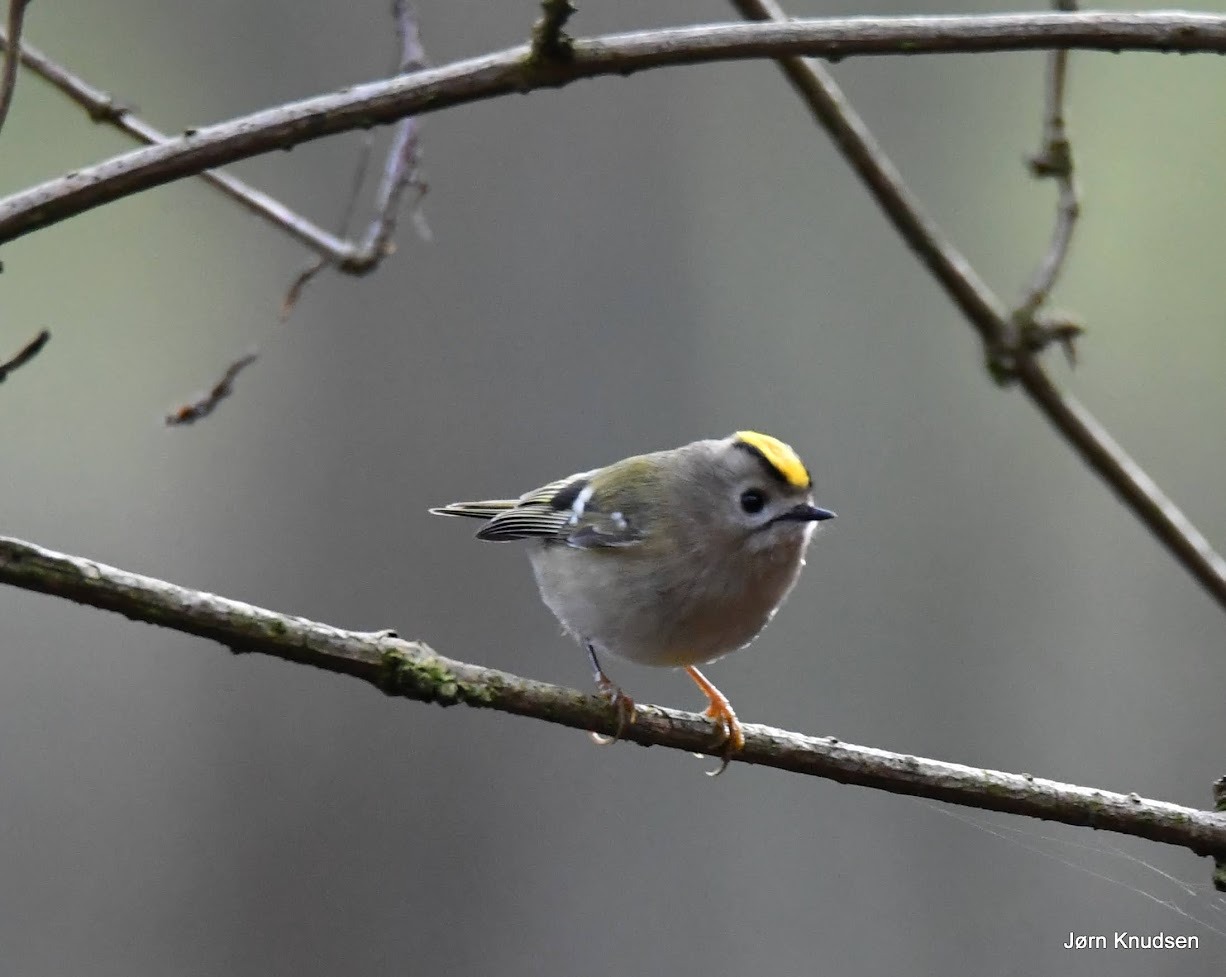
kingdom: Animalia
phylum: Chordata
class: Aves
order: Passeriformes
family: Regulidae
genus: Regulus
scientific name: Regulus regulus
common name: Fuglekonge
